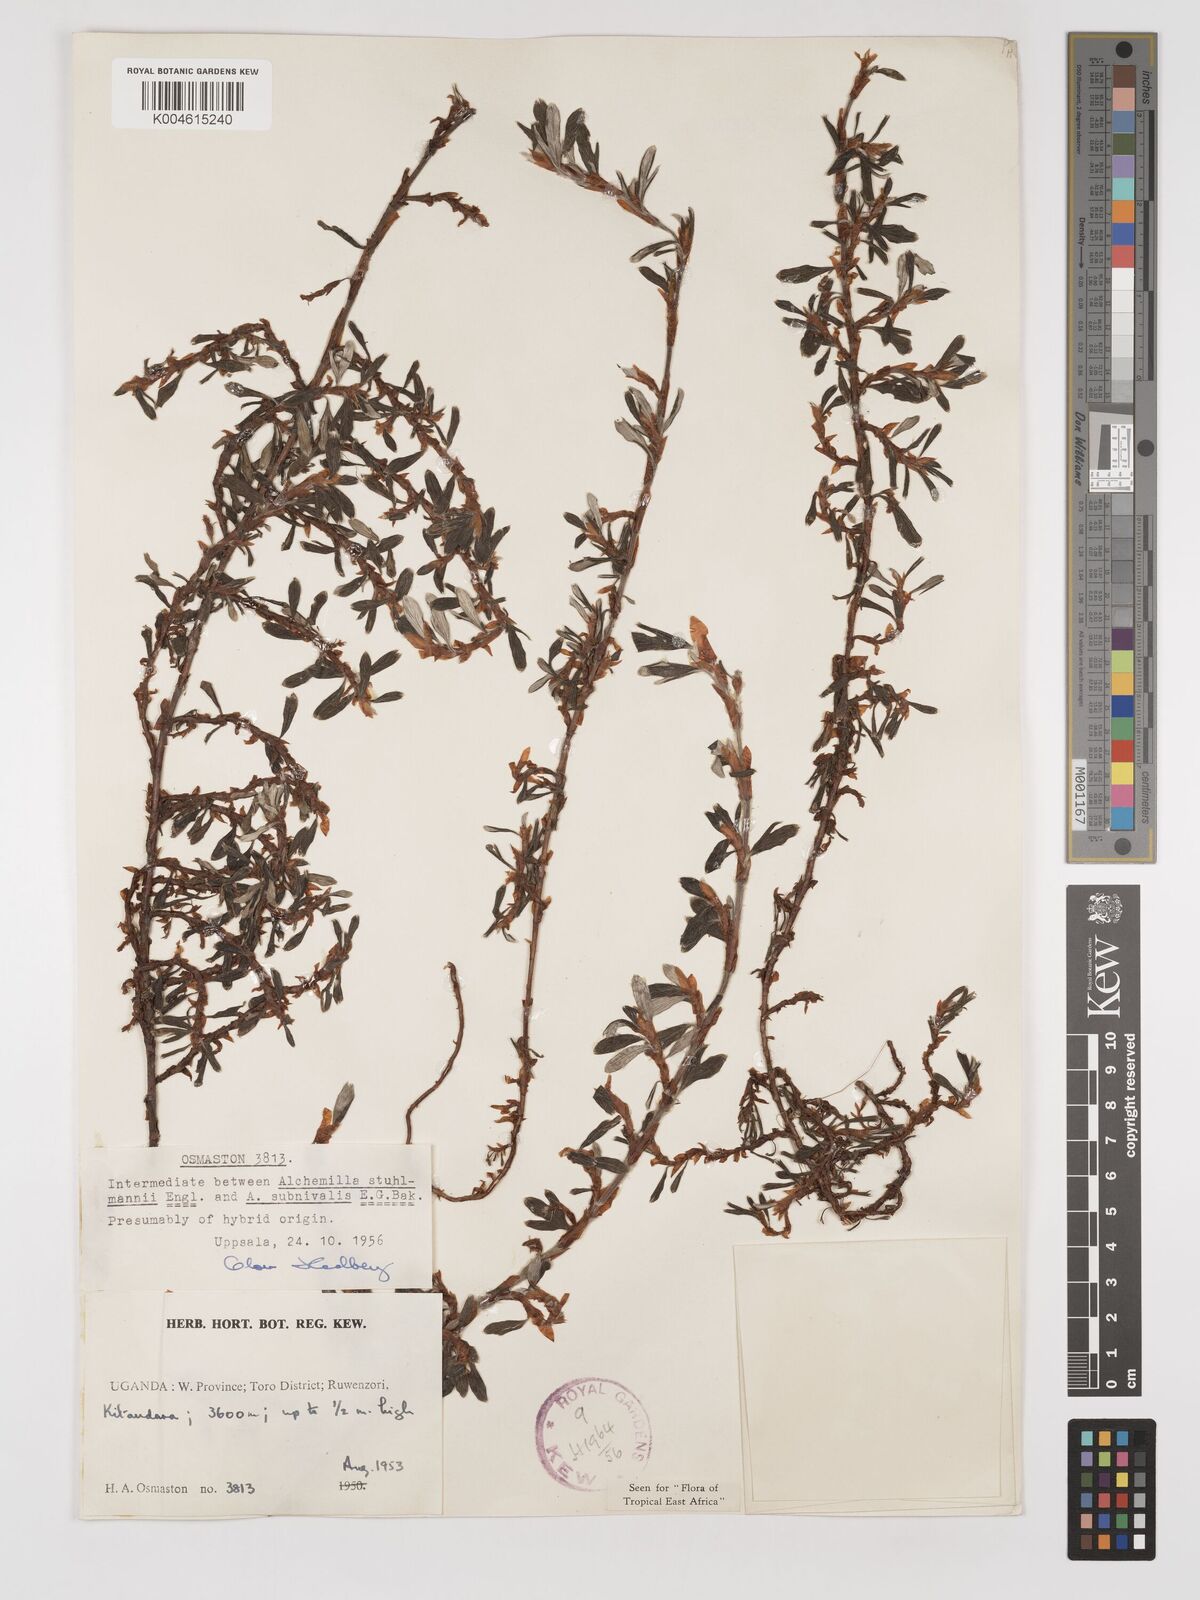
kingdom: Plantae
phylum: Tracheophyta
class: Magnoliopsida
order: Rosales
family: Rosaceae
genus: Alchemilla
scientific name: Alchemilla stuhlmannii
